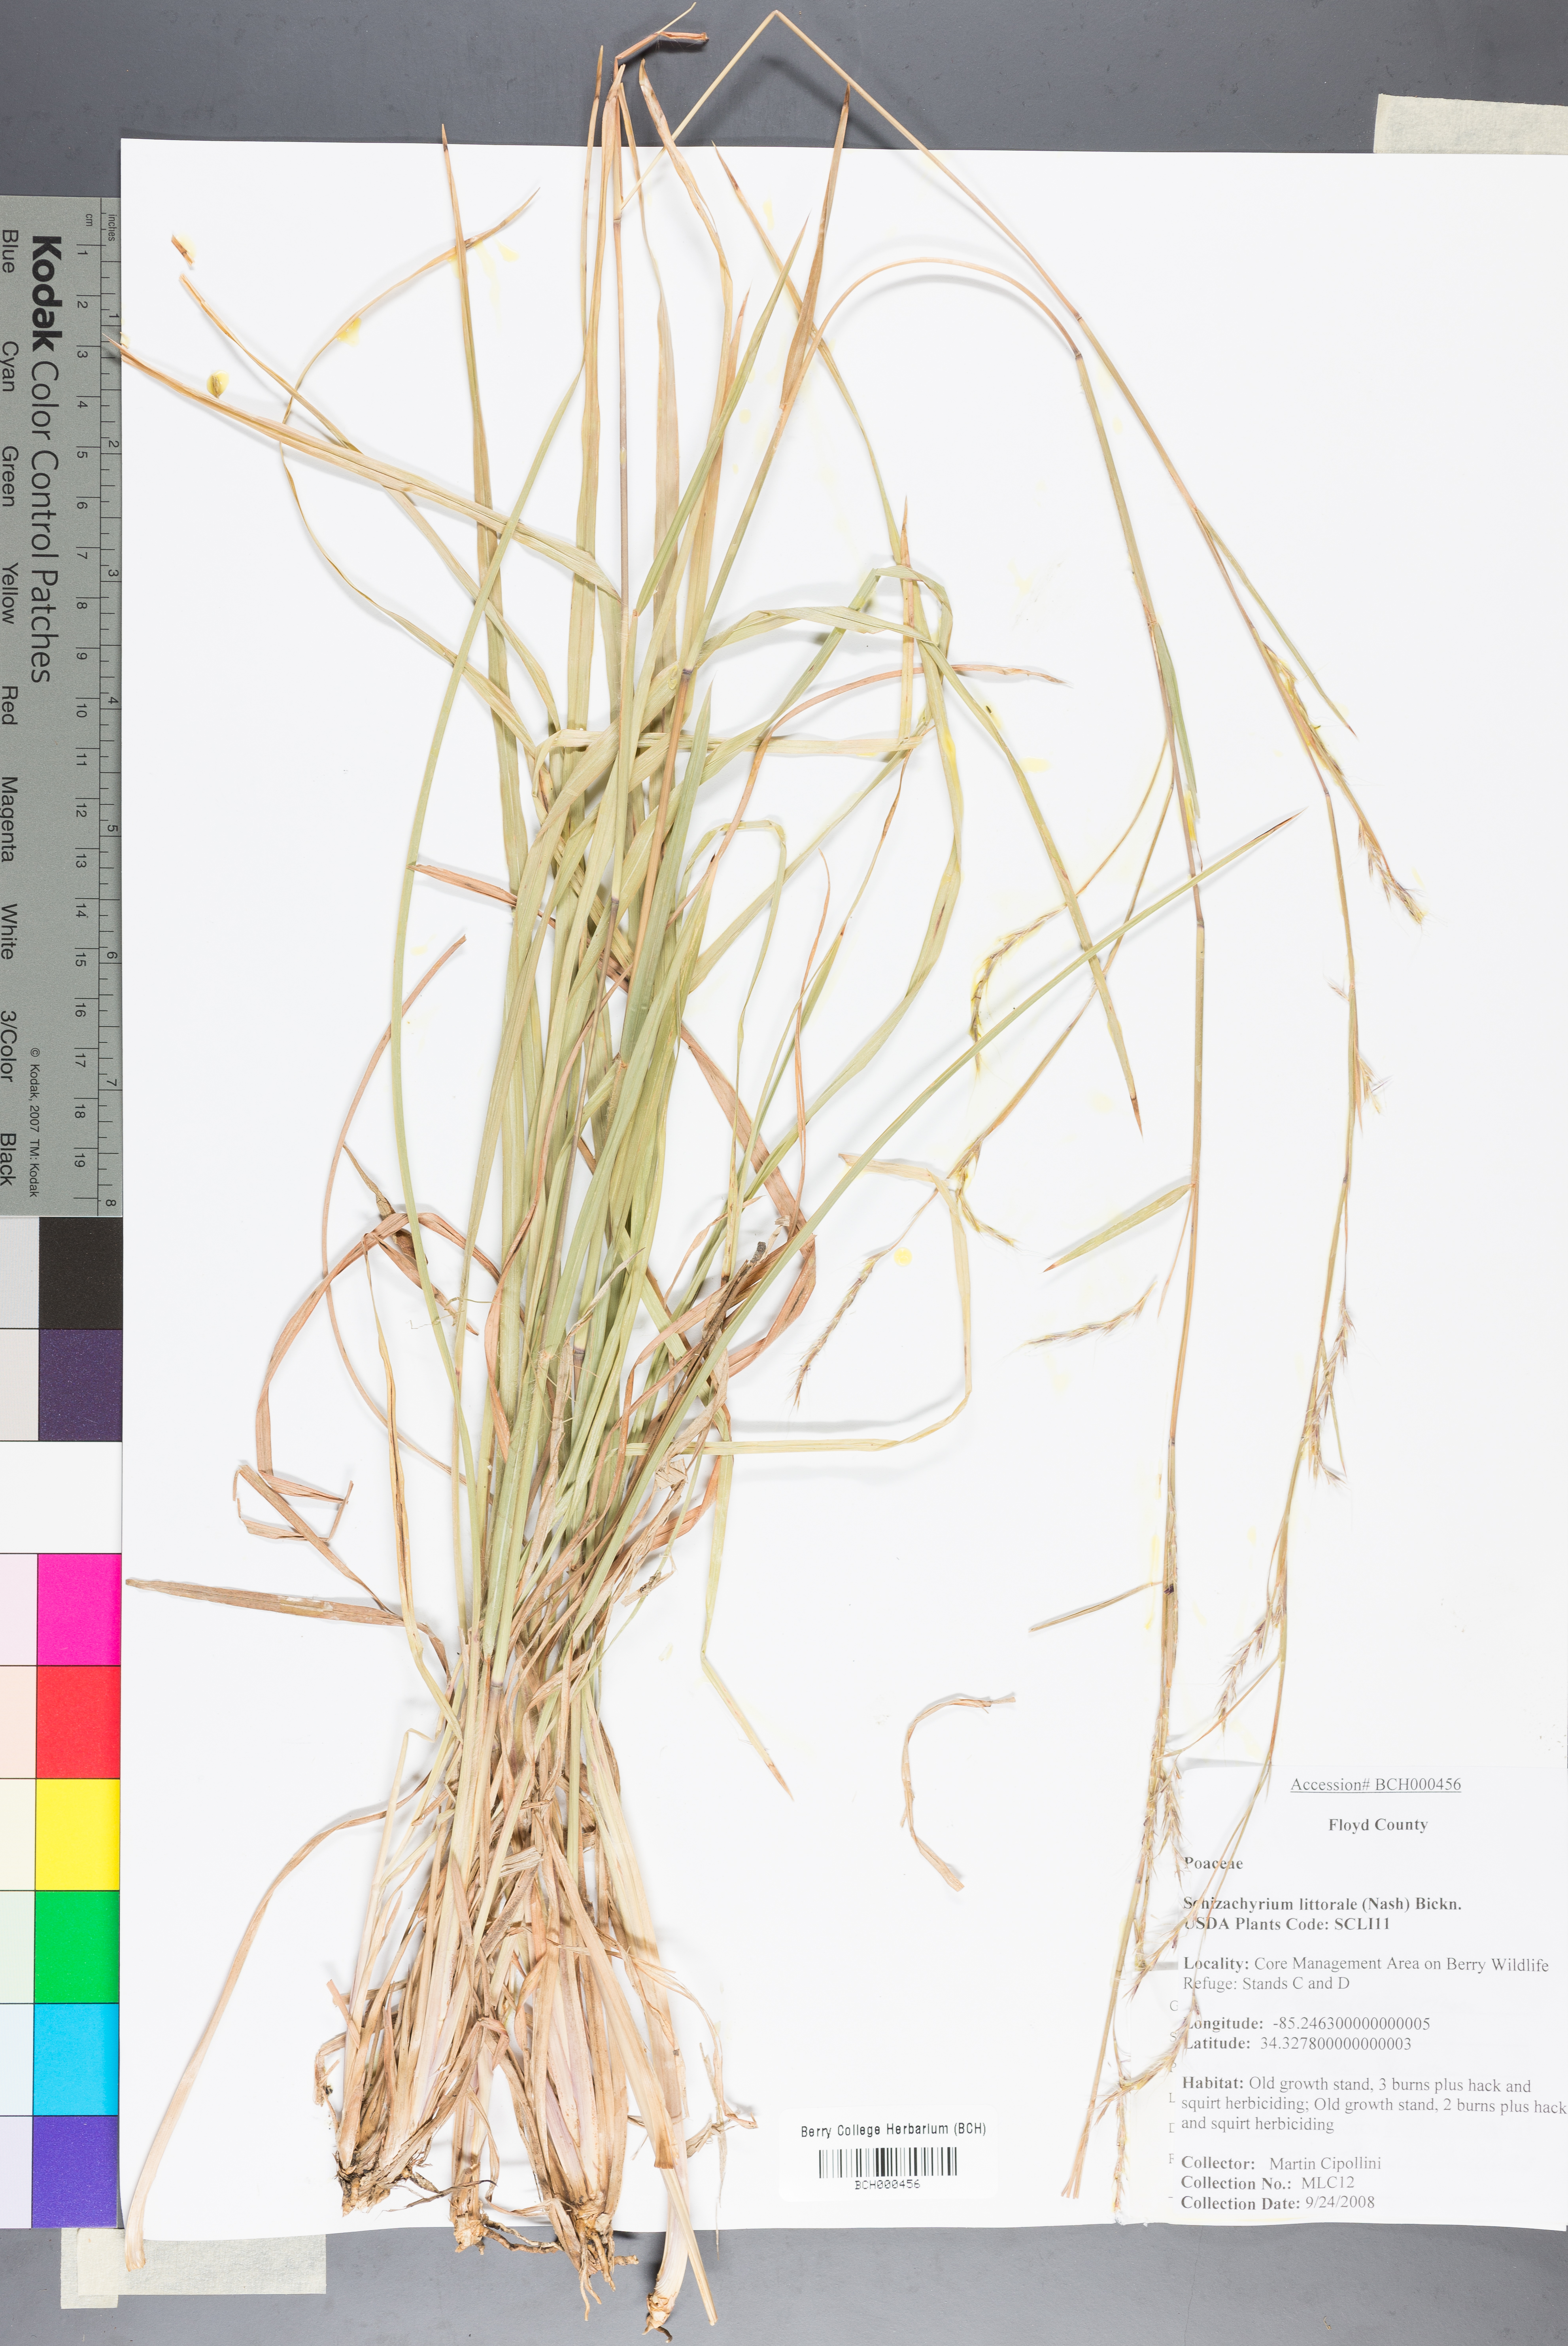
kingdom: Plantae
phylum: Tracheophyta
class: Liliopsida
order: Poales
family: Poaceae
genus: Schizachyrium
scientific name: Schizachyrium scoparium
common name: Little bluestem
